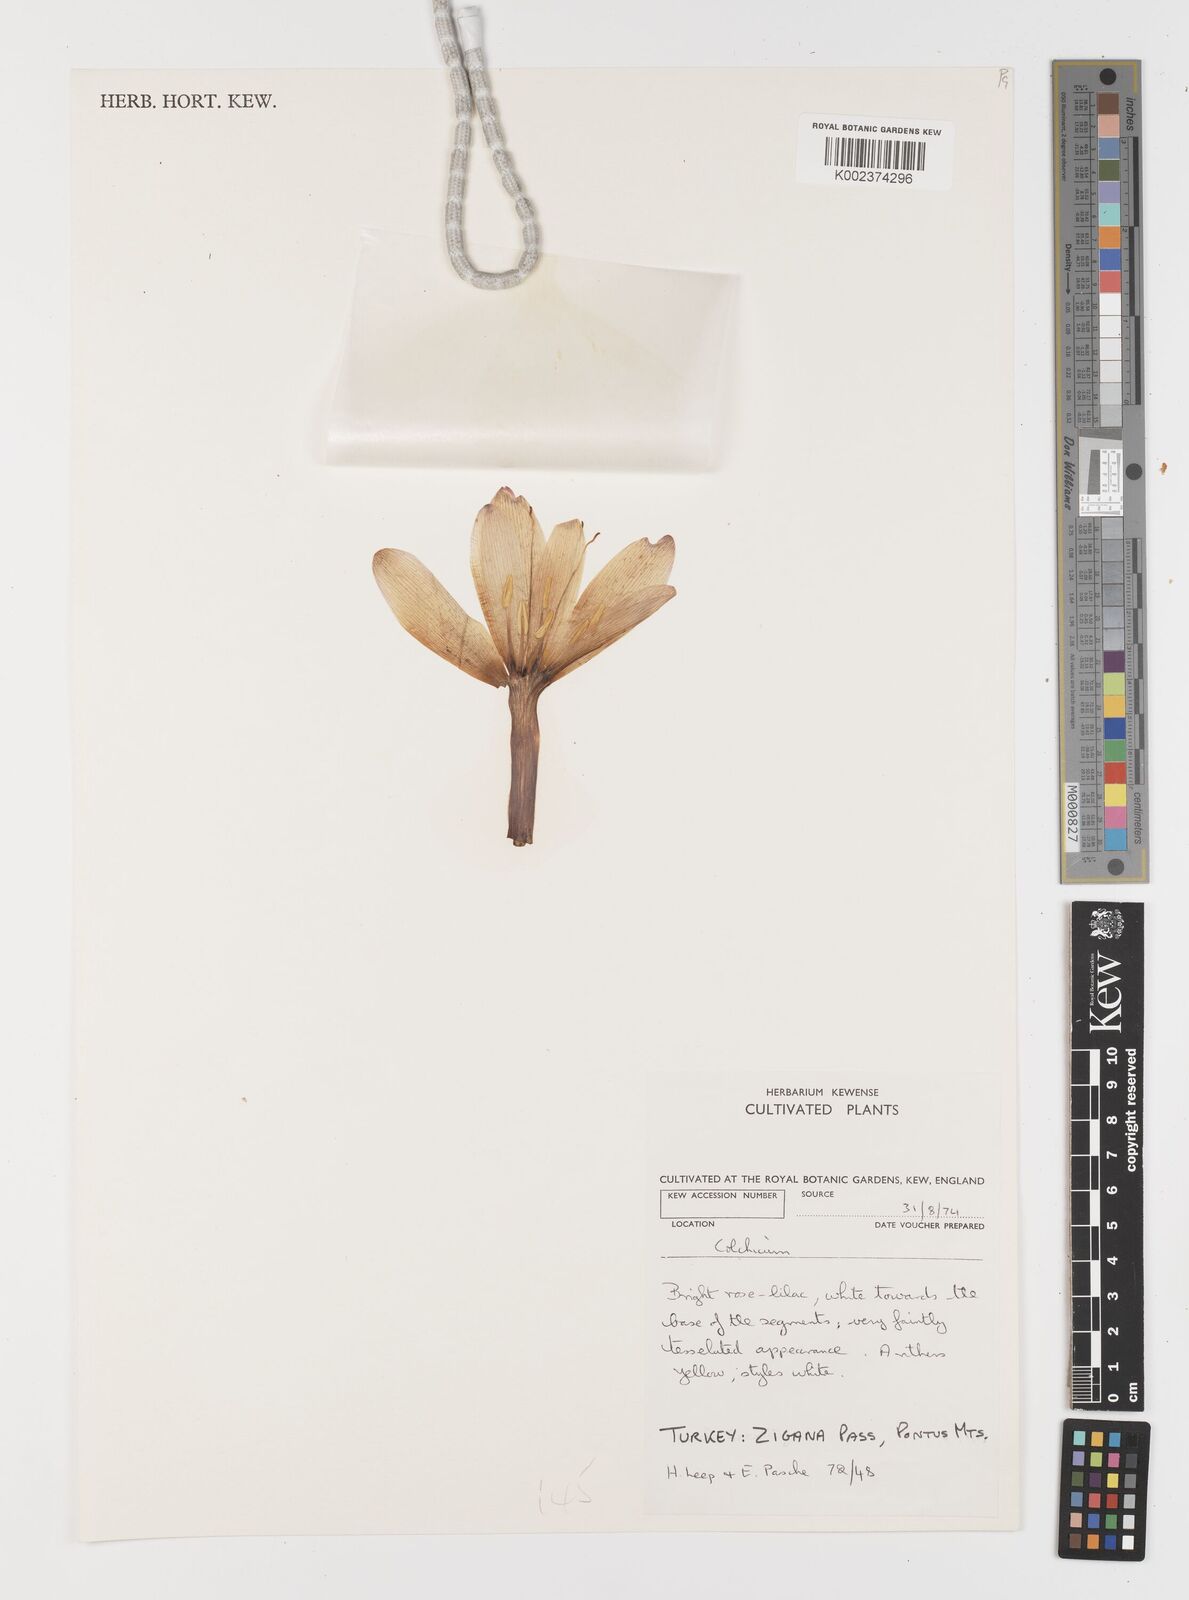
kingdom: Plantae
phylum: Tracheophyta
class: Liliopsida
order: Liliales
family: Colchicaceae
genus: Colchicum
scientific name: Colchicum
